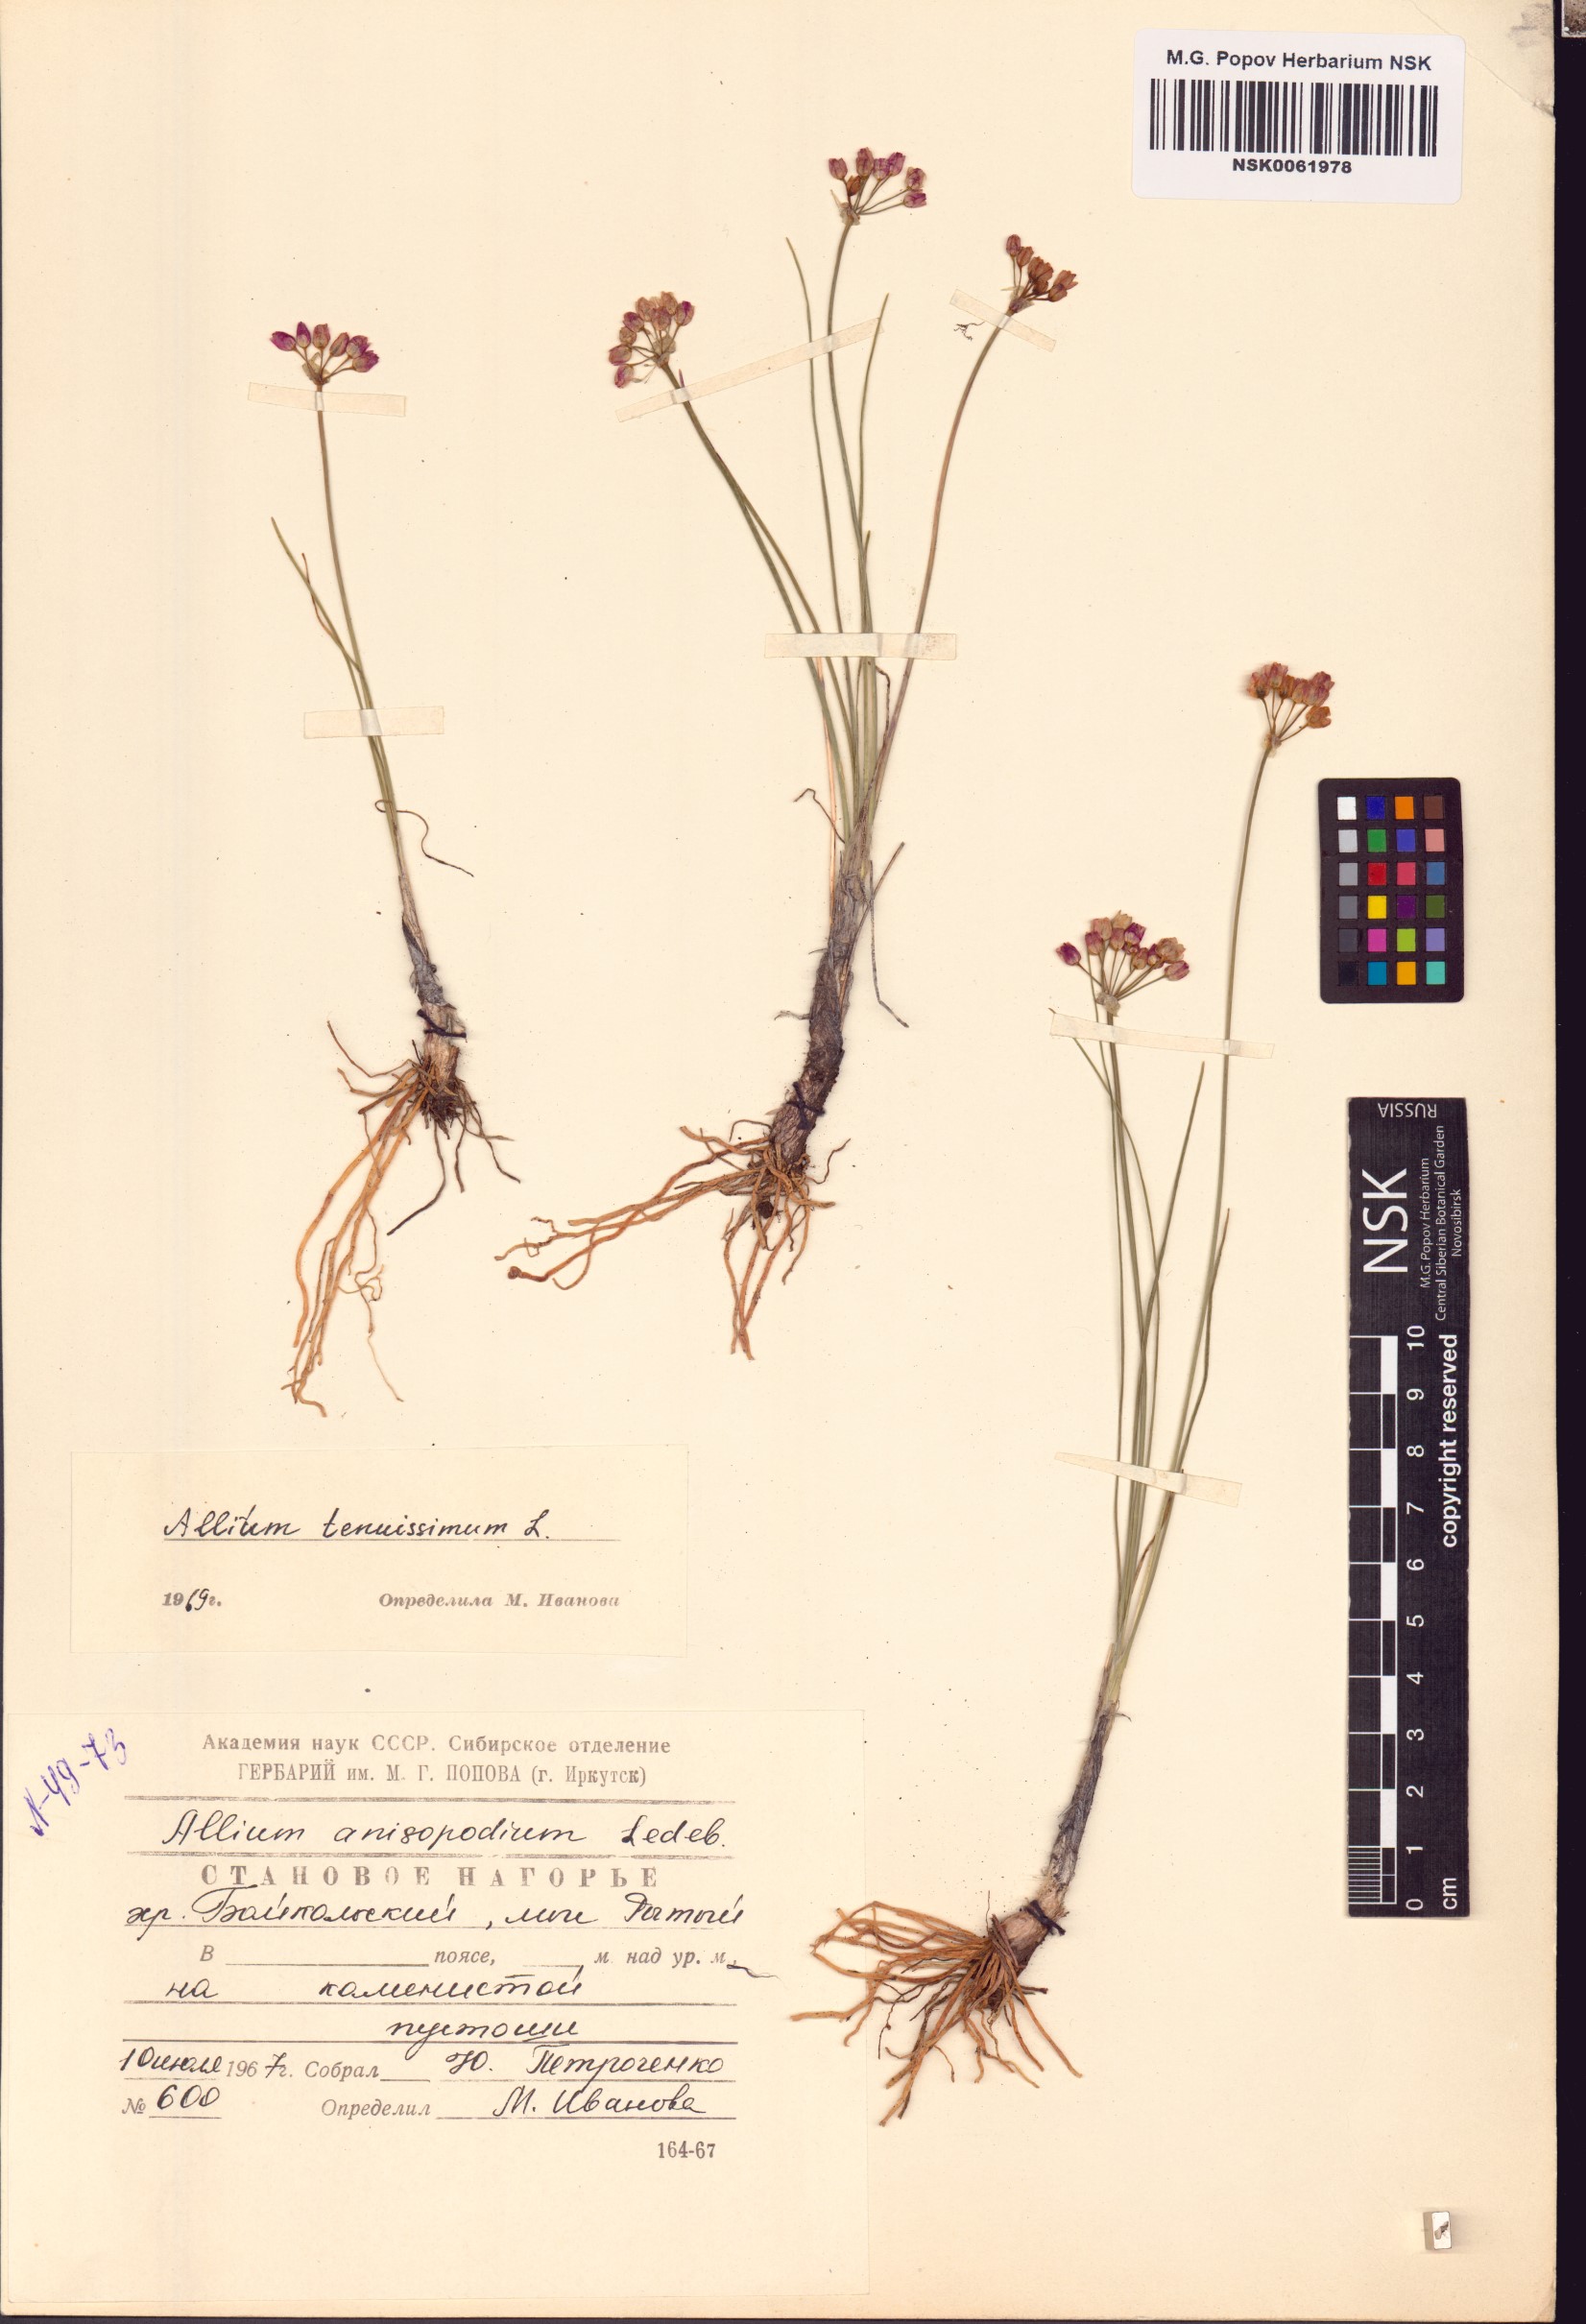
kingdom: Plantae
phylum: Tracheophyta
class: Liliopsida
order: Asparagales
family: Amaryllidaceae
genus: Allium
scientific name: Allium tenuissimum
